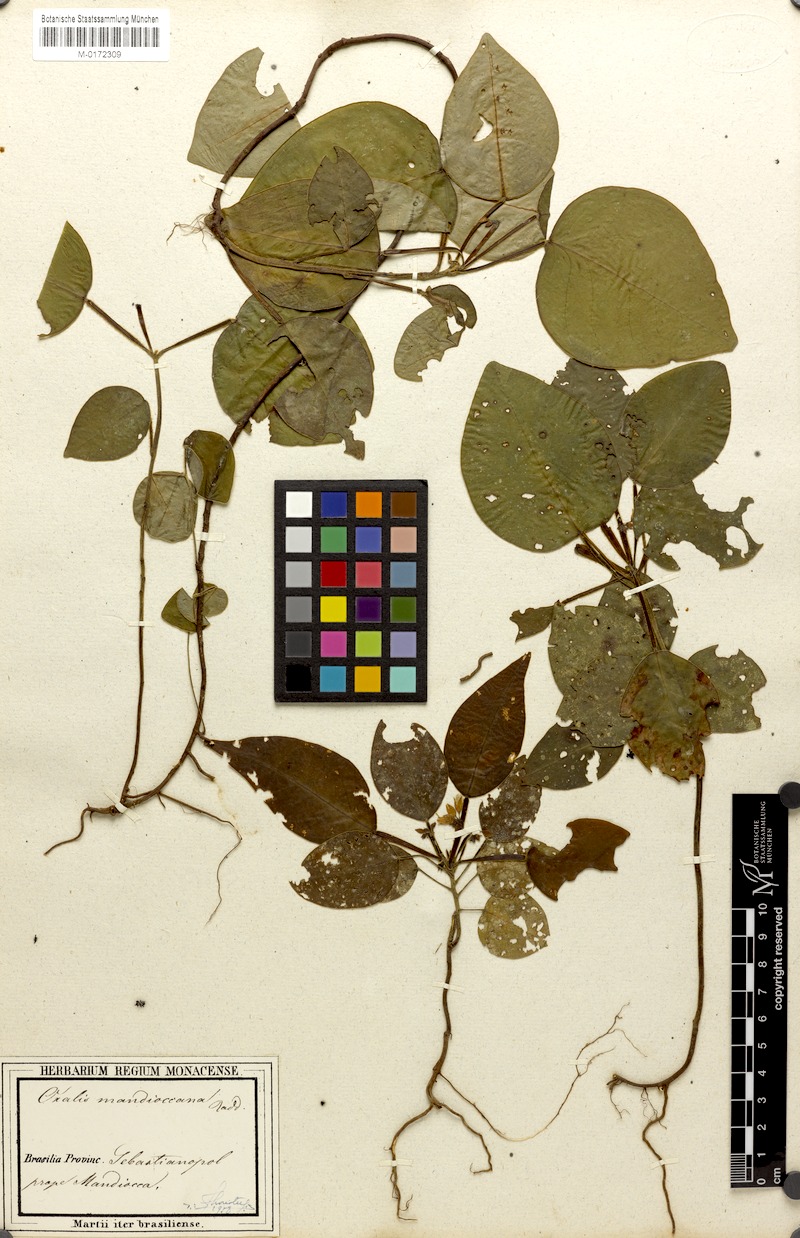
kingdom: Plantae
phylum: Tracheophyta
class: Magnoliopsida
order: Oxalidales
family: Oxalidaceae
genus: Oxalis
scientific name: Oxalis mandioccana
